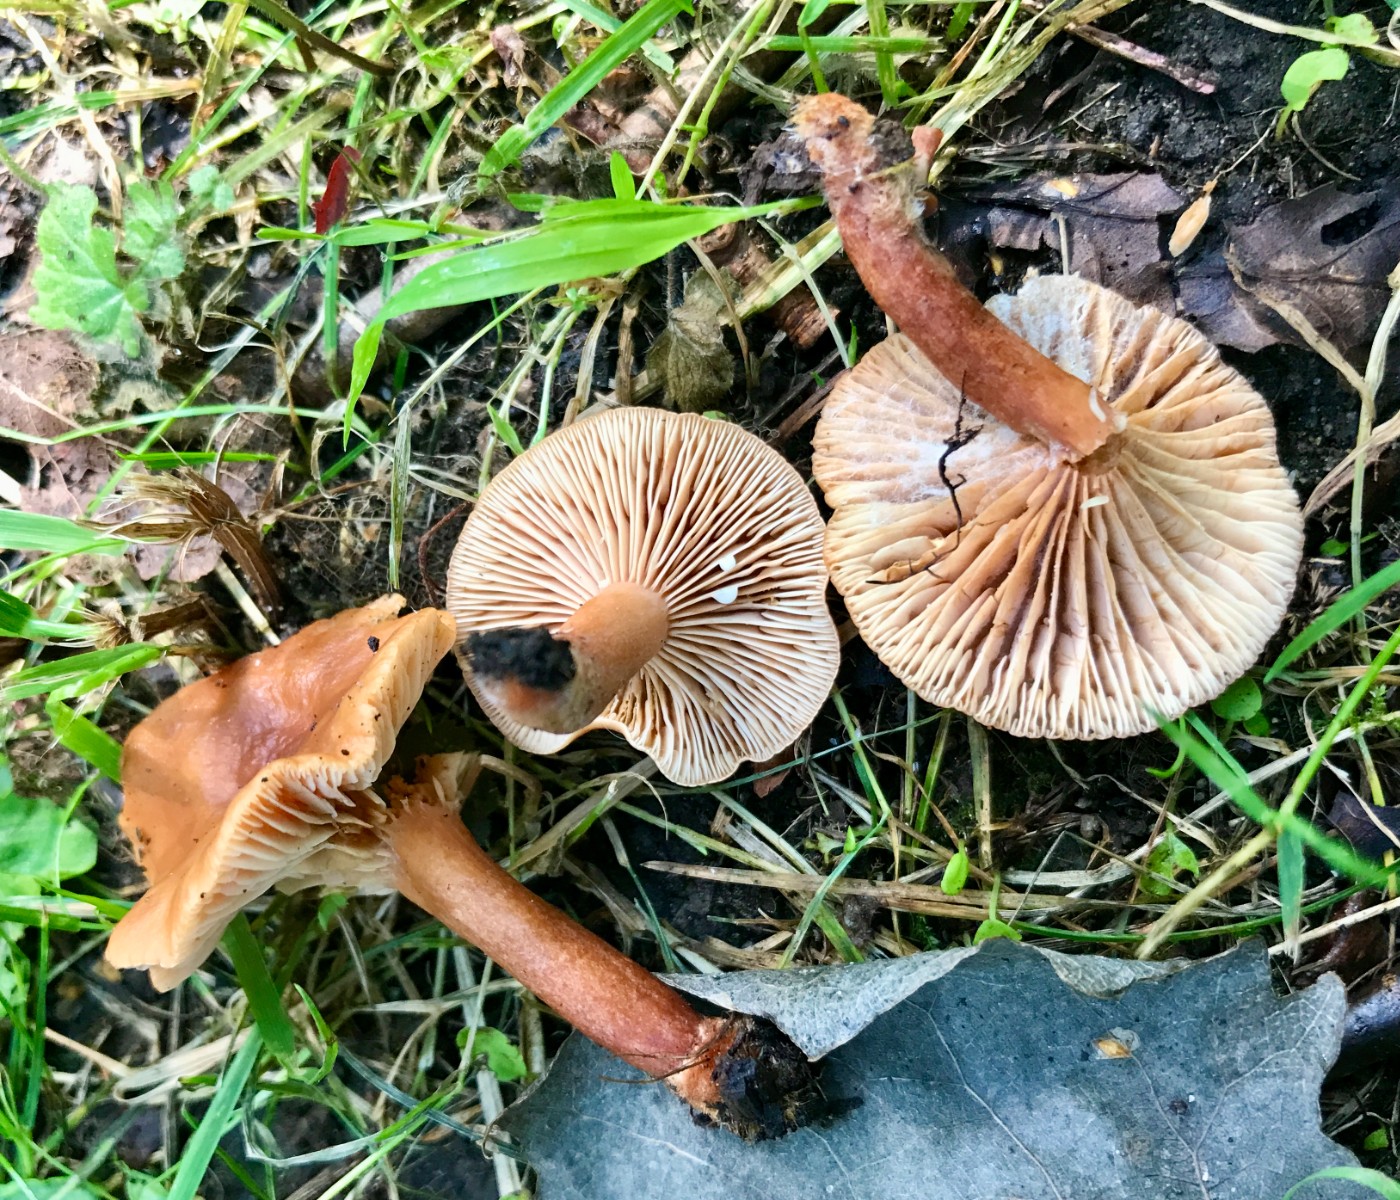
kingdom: Fungi
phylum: Basidiomycota
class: Agaricomycetes
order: Russulales
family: Russulaceae
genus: Lactarius
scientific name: Lactarius tabidus
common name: rynket mælkehat
